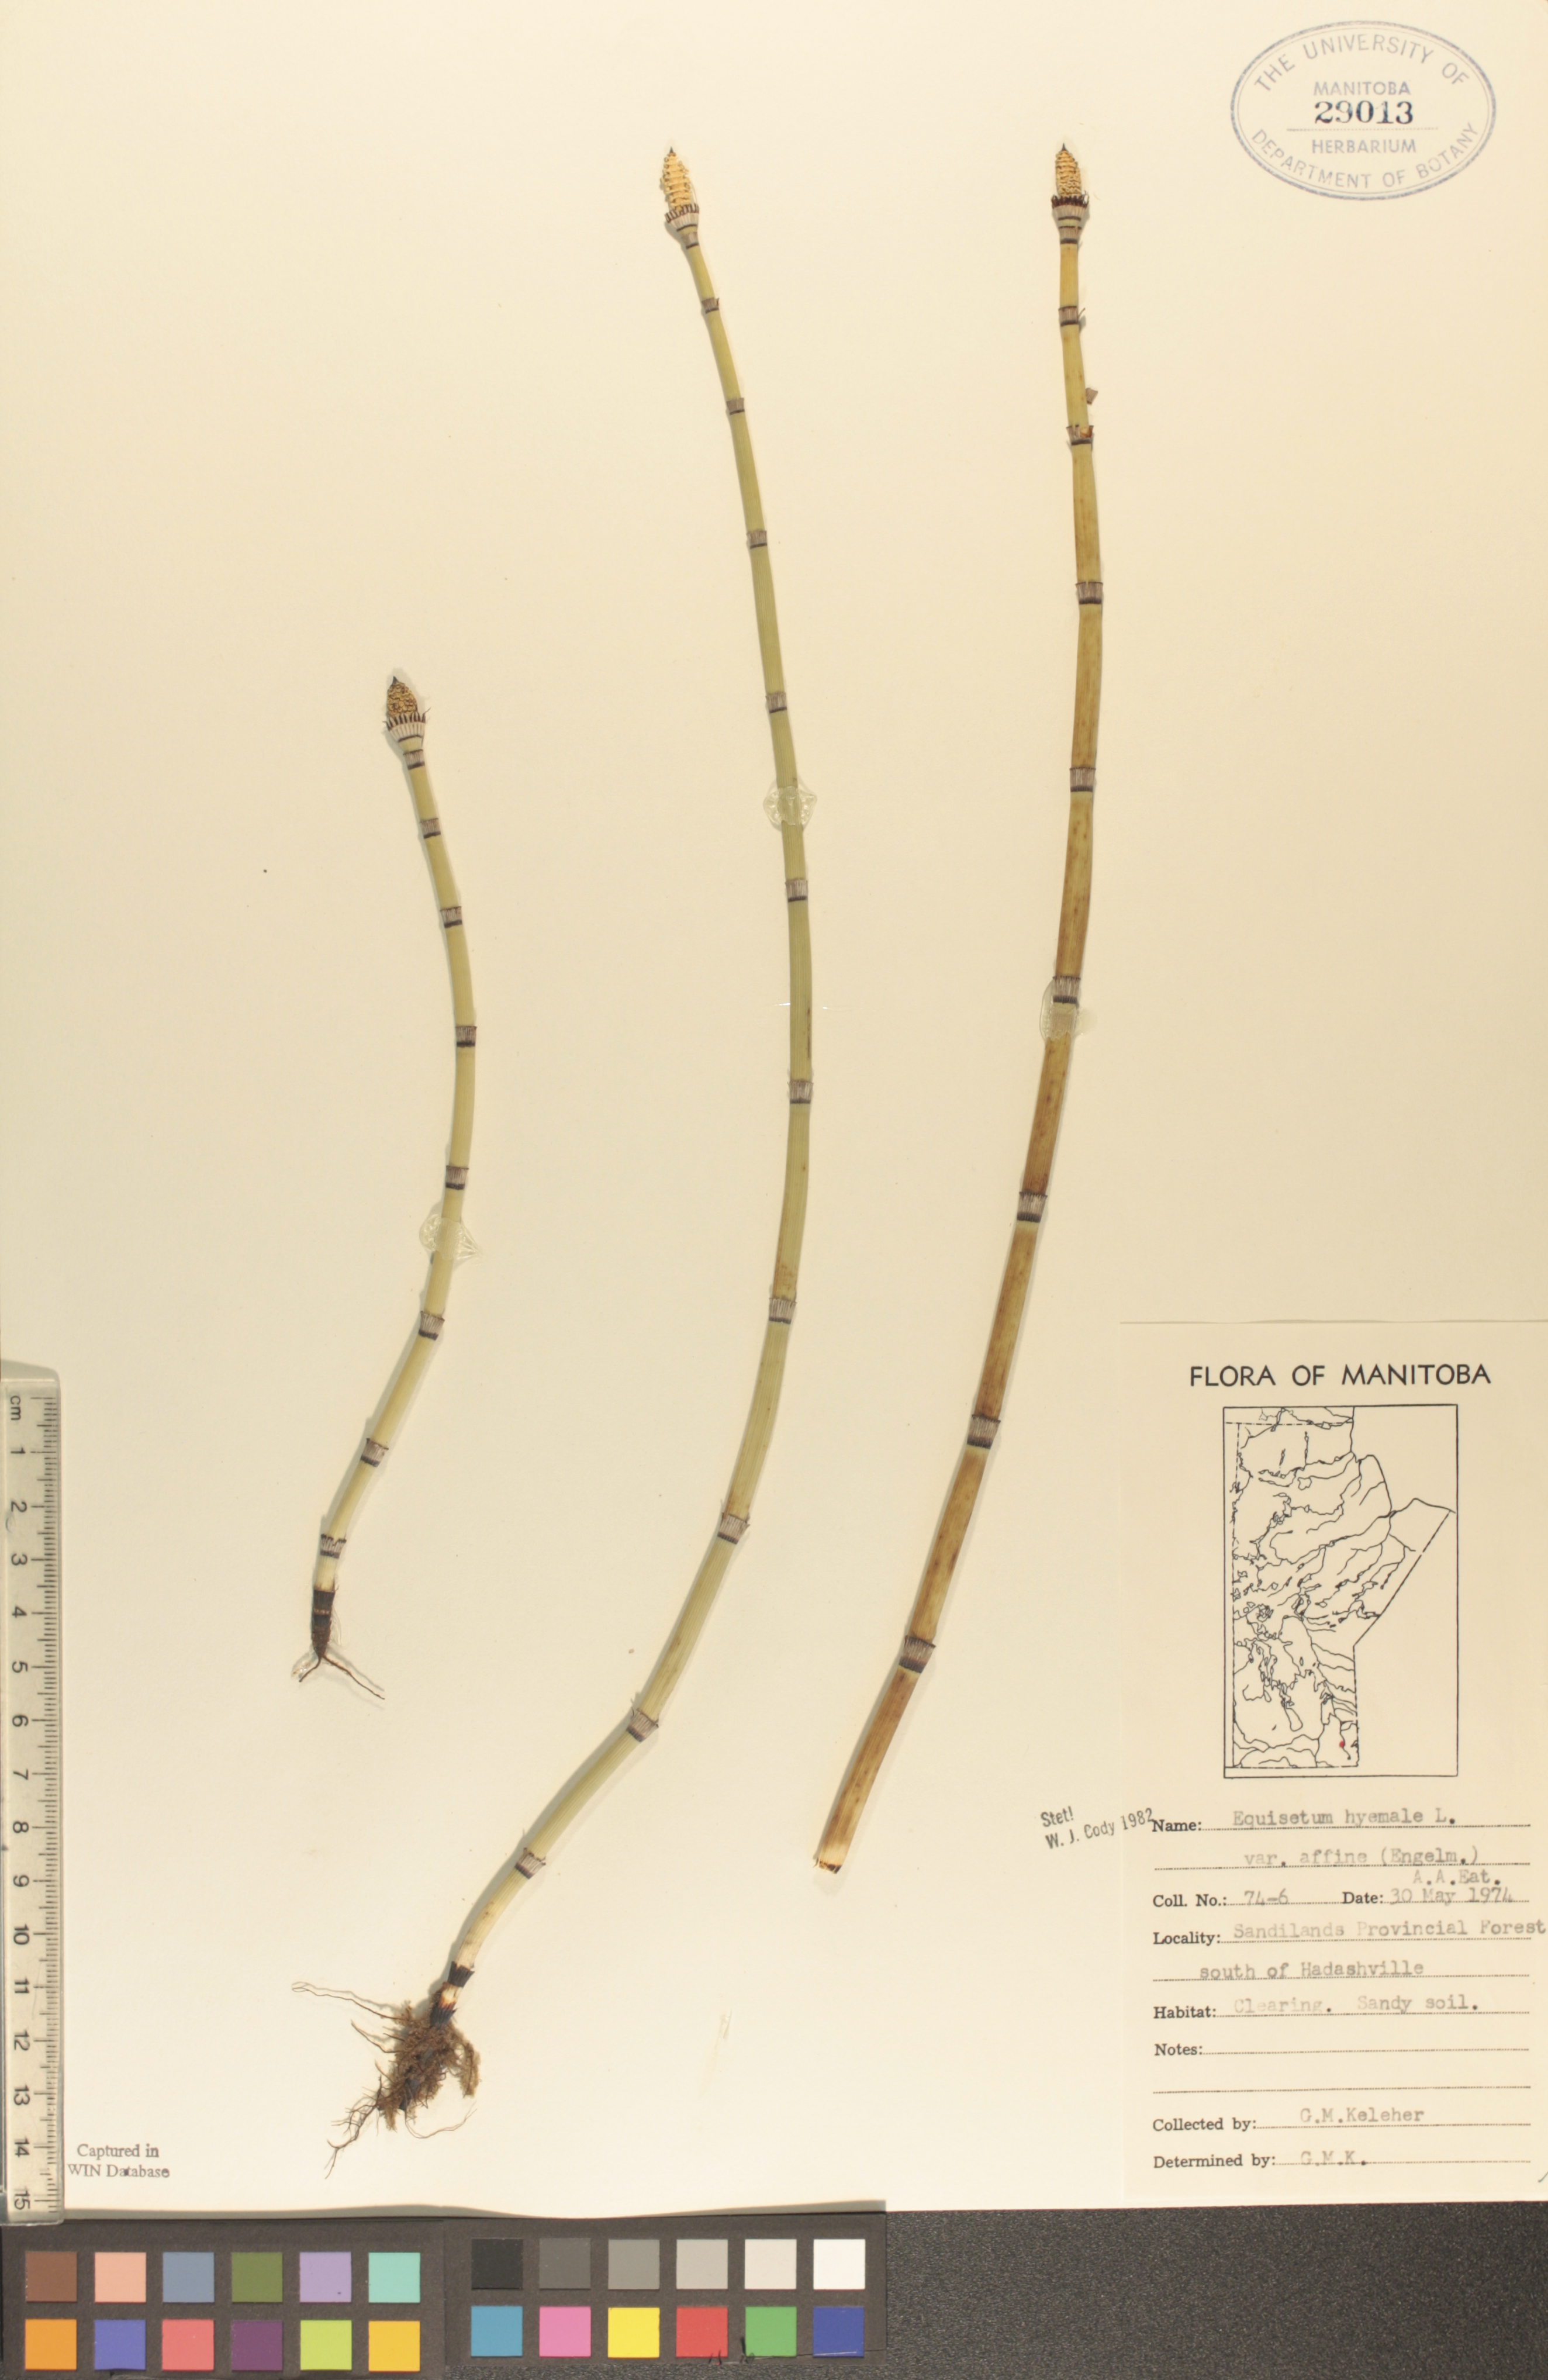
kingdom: Plantae
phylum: Tracheophyta
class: Polypodiopsida
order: Equisetales
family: Equisetaceae
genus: Equisetum
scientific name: Equisetum hyemale
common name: Rough horsetail
